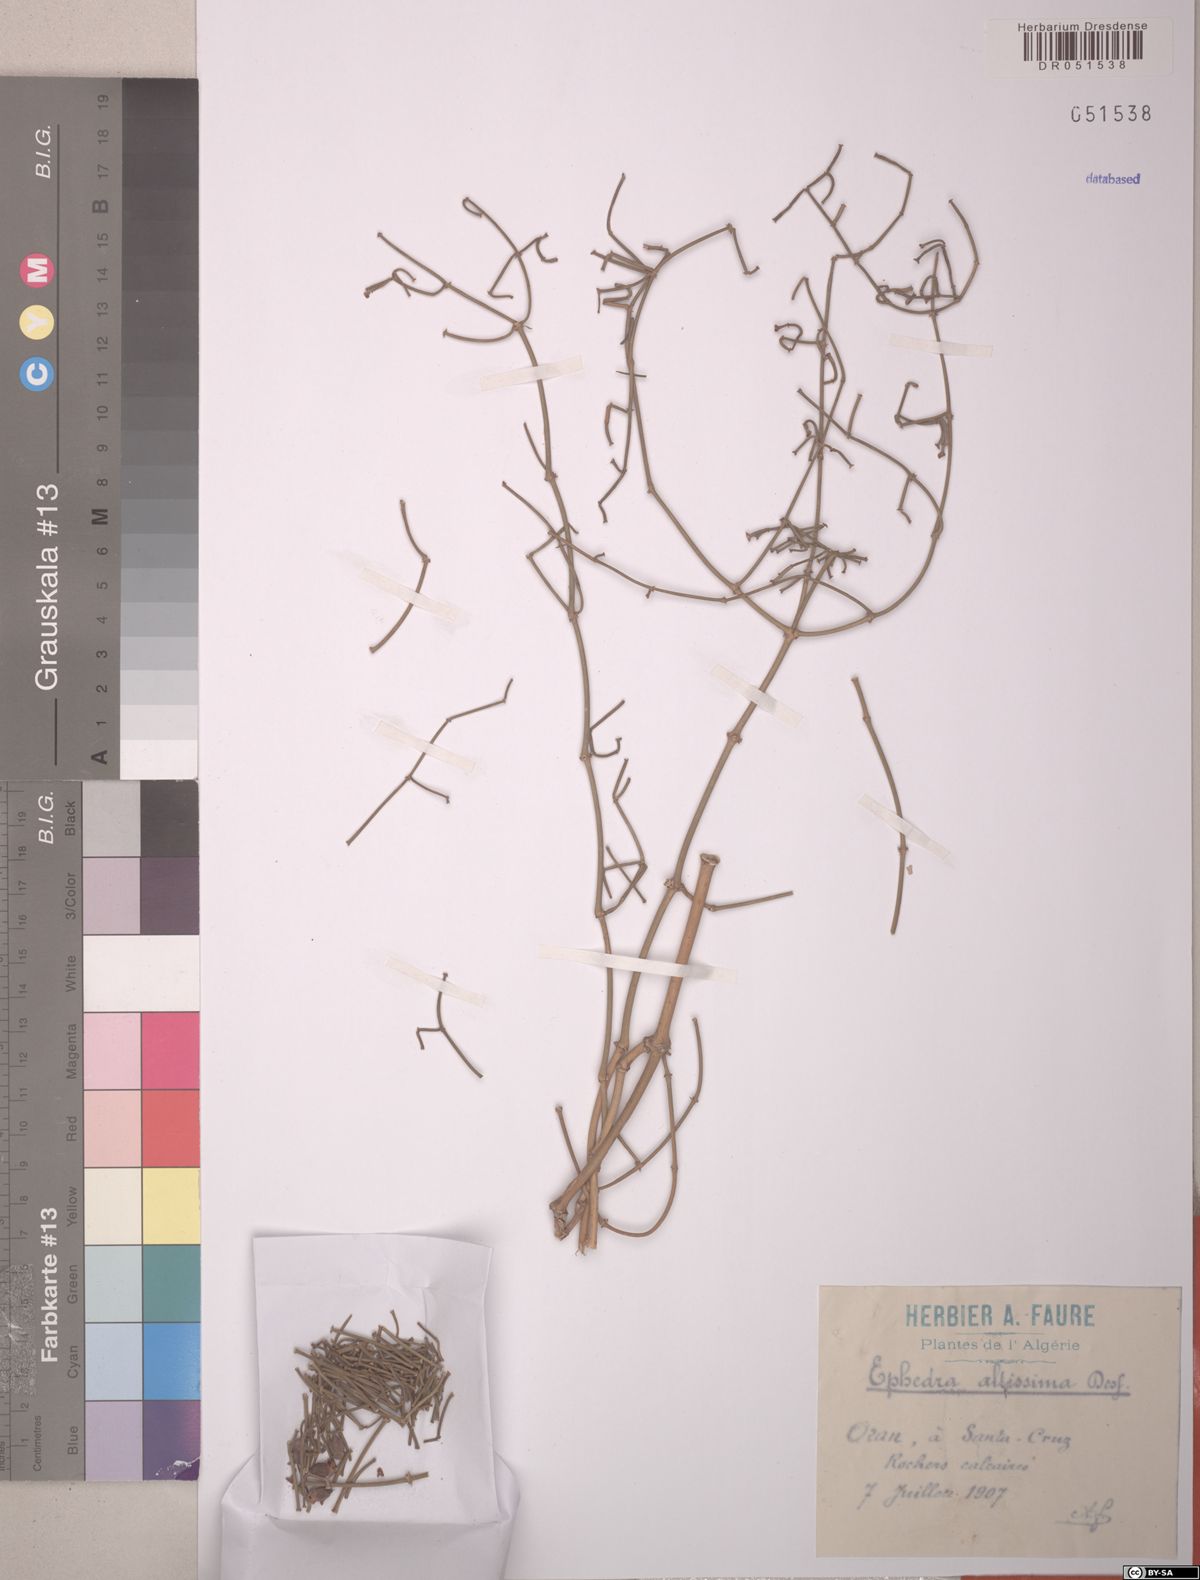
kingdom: Plantae
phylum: Tracheophyta
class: Gnetopsida
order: Ephedrales
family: Ephedraceae
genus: Ephedra
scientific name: Ephedra altissima
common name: High-climbing jointfir
